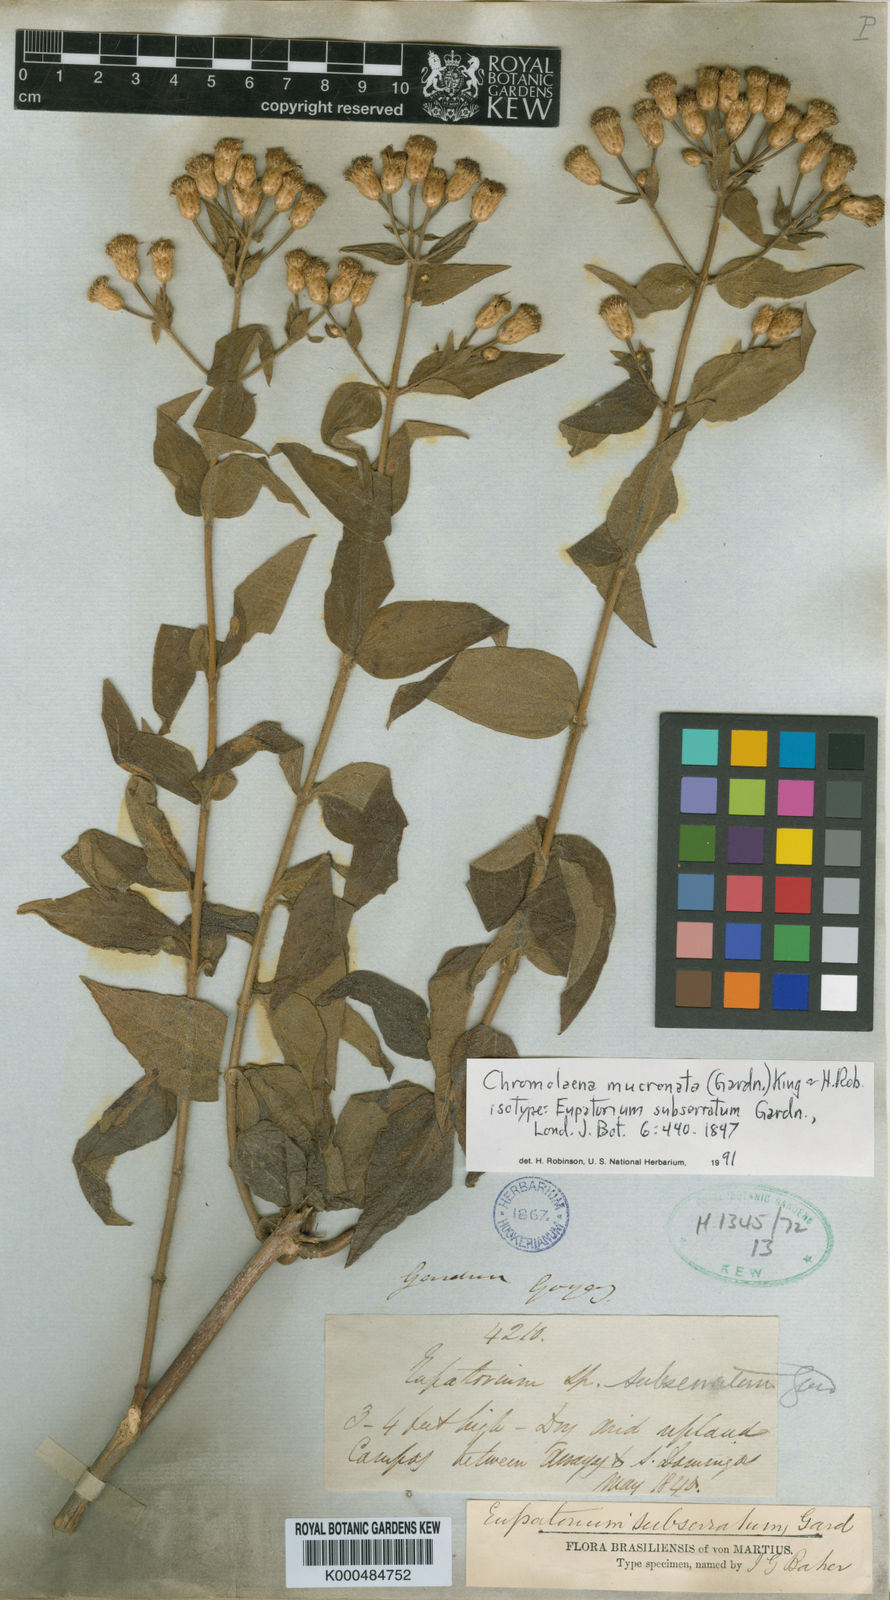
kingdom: Plantae
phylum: Tracheophyta
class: Magnoliopsida
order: Asterales
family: Asteraceae
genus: Chromolaena
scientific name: Chromolaena mucronata
